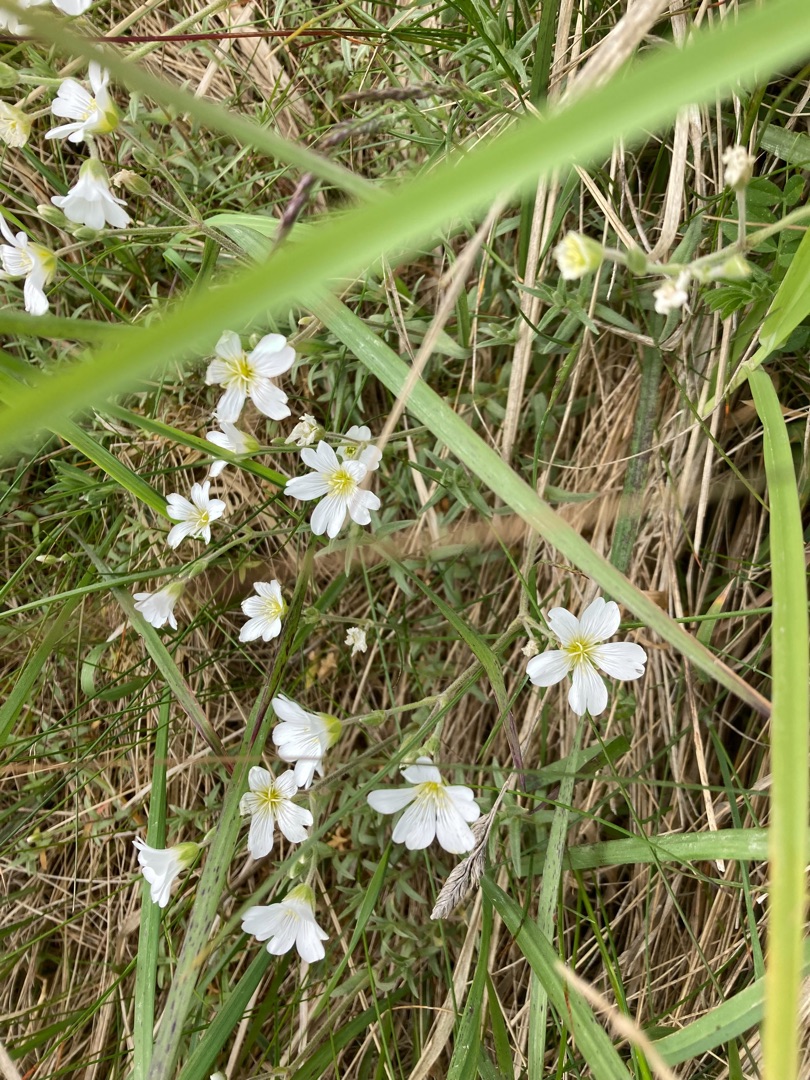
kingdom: Plantae
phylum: Tracheophyta
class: Magnoliopsida
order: Caryophyllales
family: Caryophyllaceae
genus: Cerastium
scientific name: Cerastium arvense
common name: Storblomstret hønsetarm
